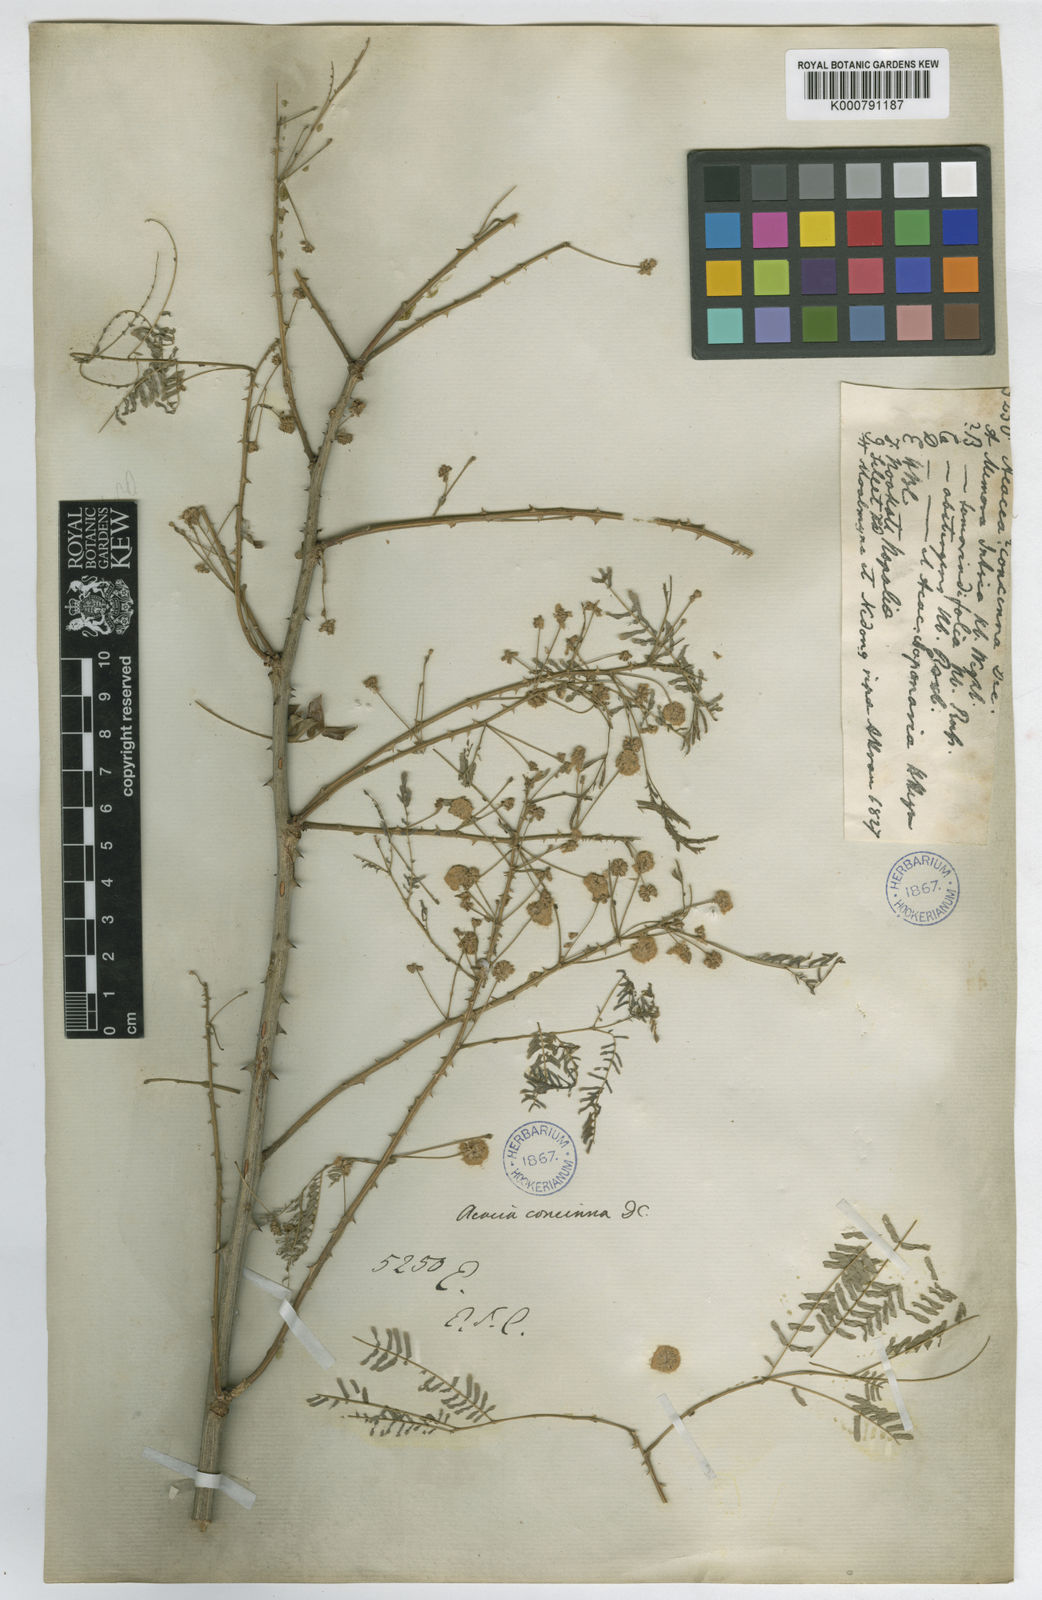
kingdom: Plantae
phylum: Tracheophyta
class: Magnoliopsida
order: Fabales
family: Fabaceae
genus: Senegalia
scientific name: Senegalia rugata
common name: Soap-pod
